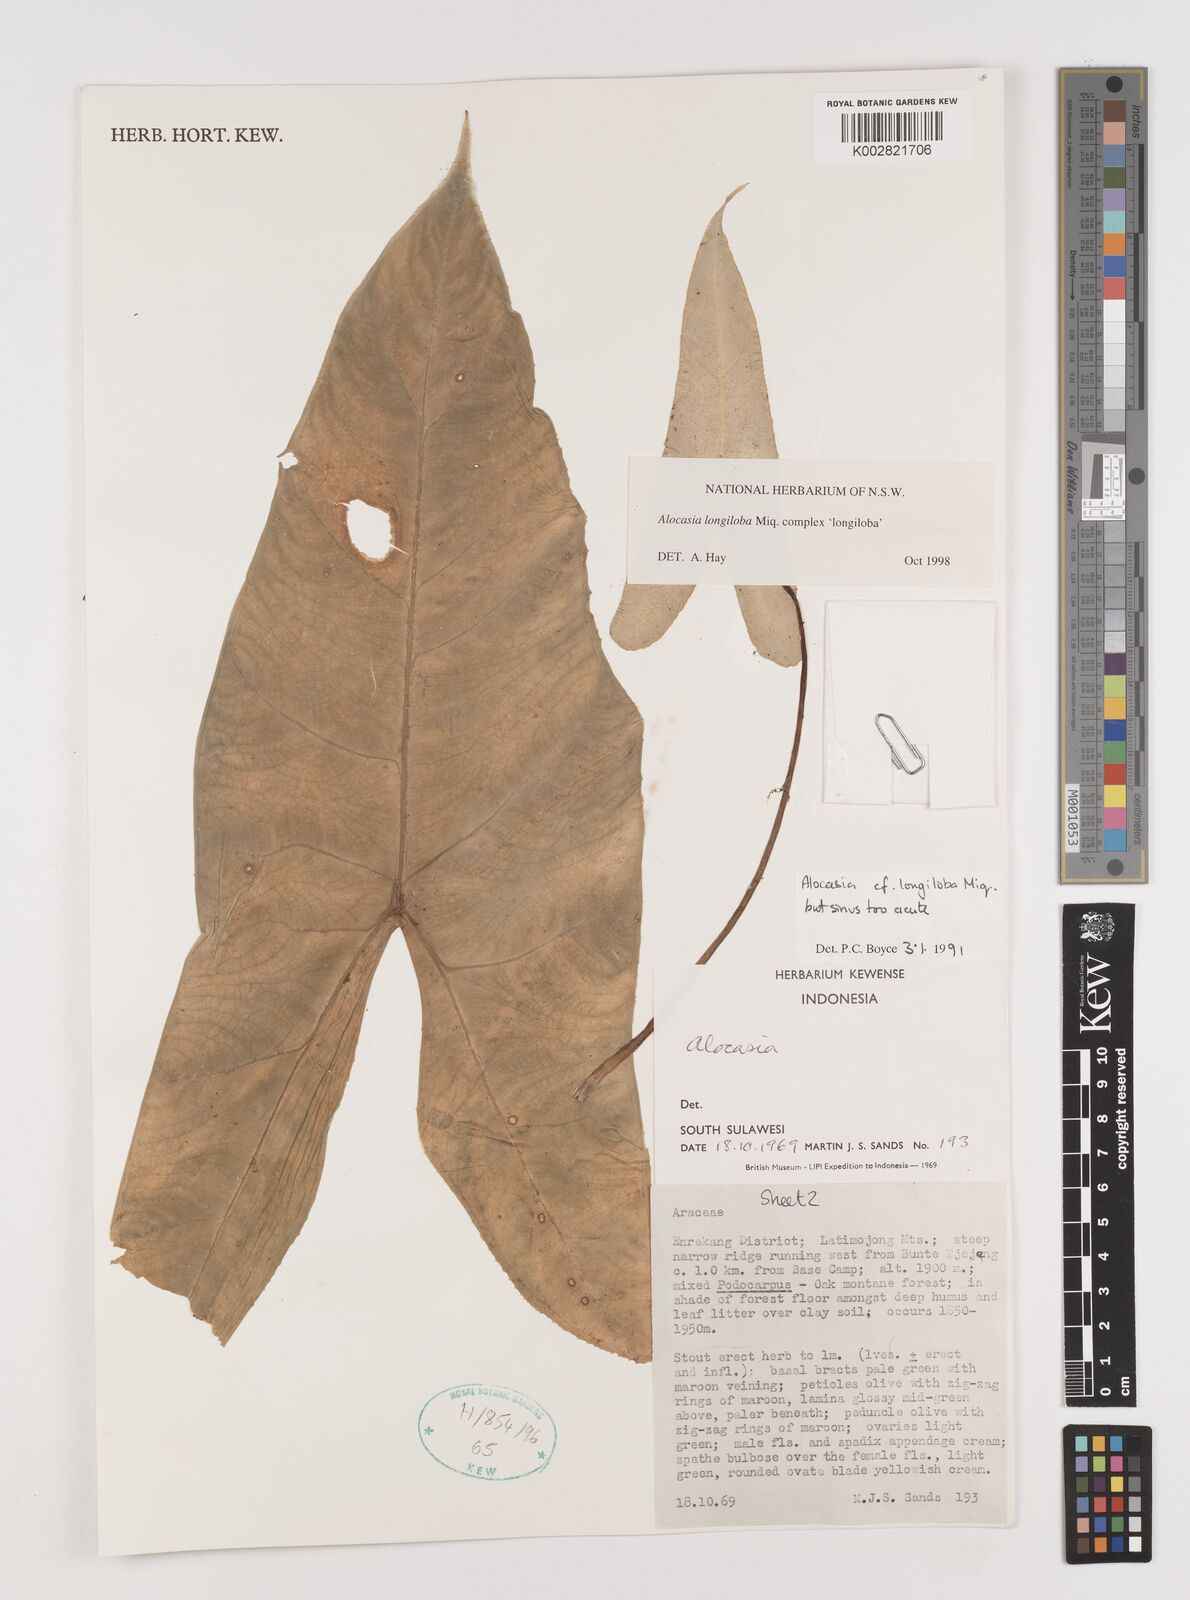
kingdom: Plantae
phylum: Tracheophyta
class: Liliopsida
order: Alismatales
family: Araceae
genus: Alocasia
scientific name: Alocasia longiloba
